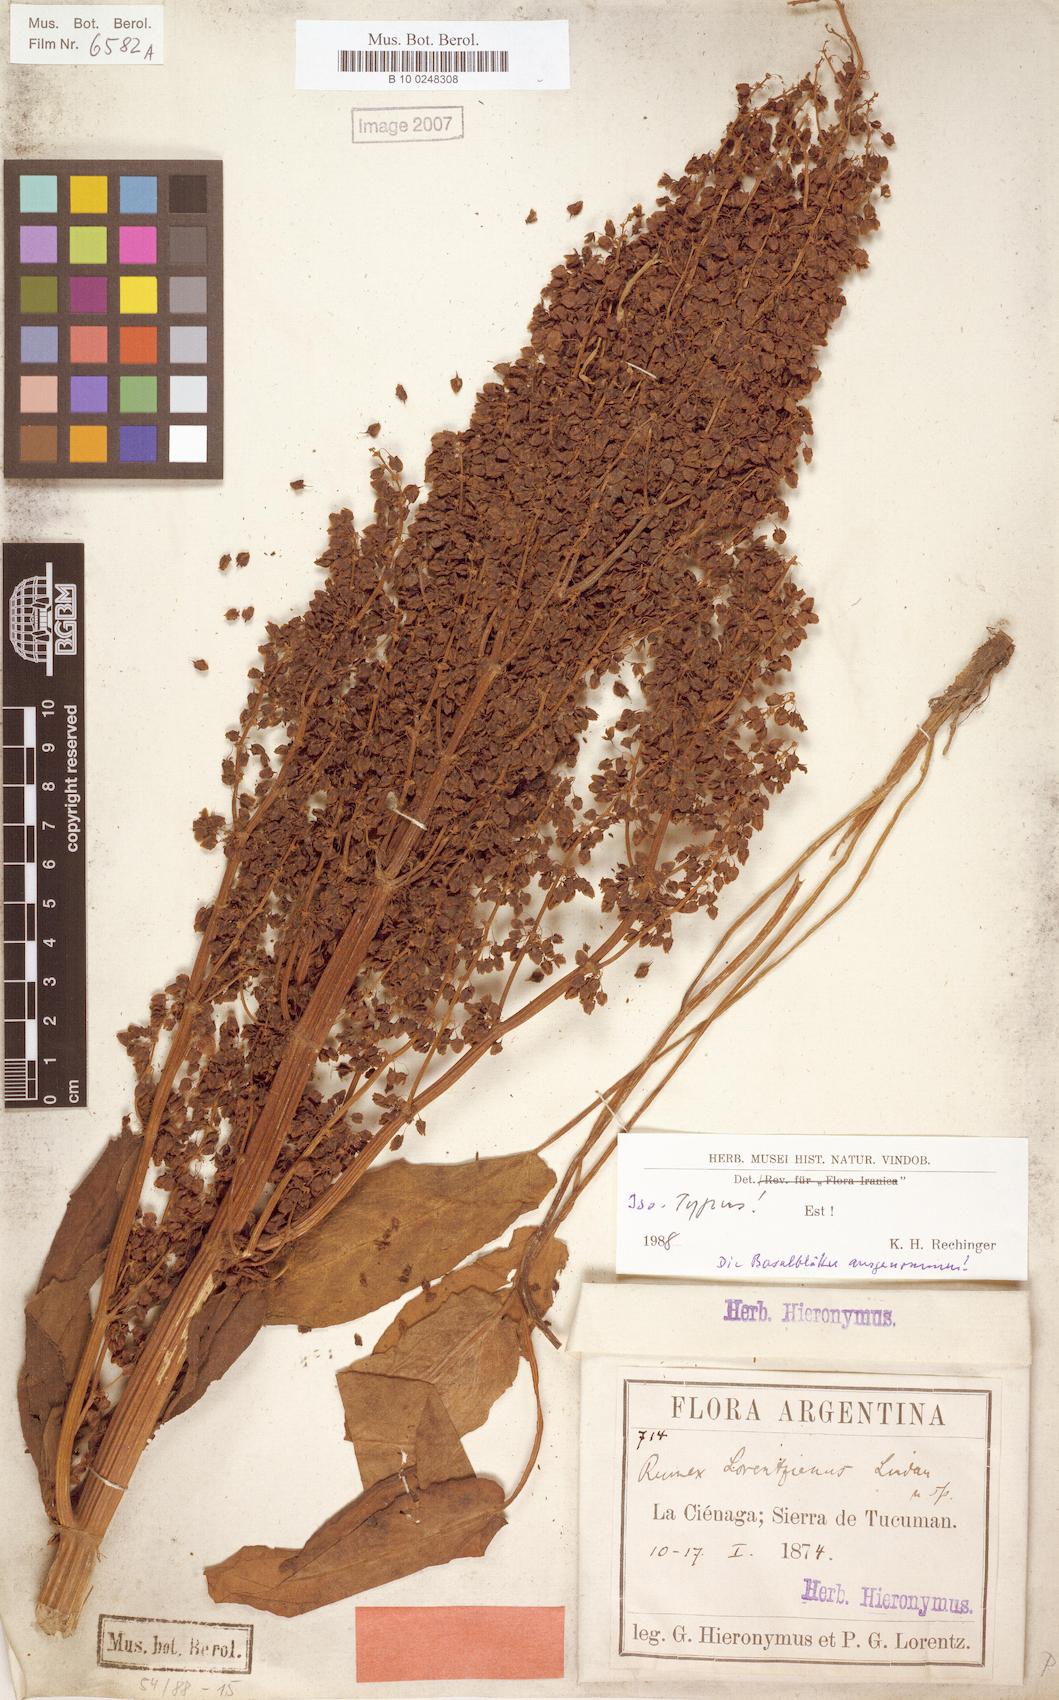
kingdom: Plantae
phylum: Tracheophyta
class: Magnoliopsida
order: Caryophyllales
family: Polygonaceae
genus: Rumex
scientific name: Rumex lorentzianus
